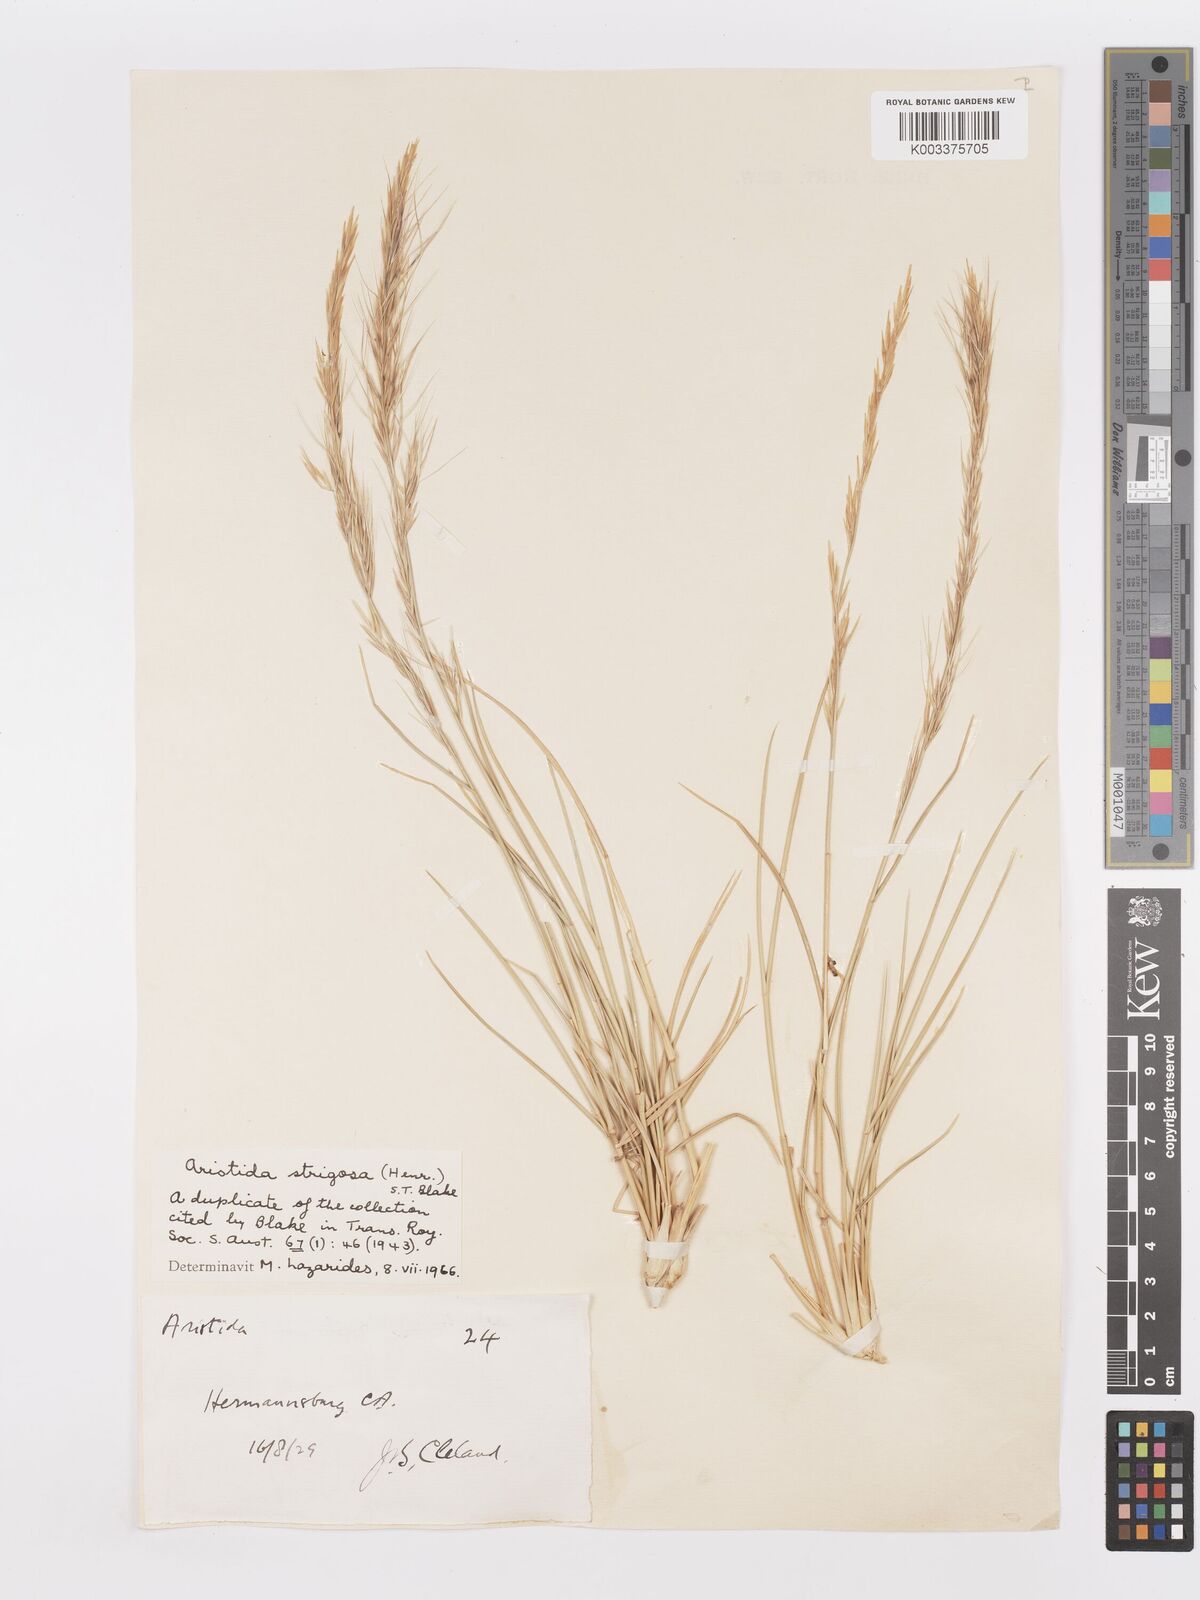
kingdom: Plantae
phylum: Tracheophyta
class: Liliopsida
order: Poales
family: Poaceae
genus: Aristida
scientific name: Aristida strigosa
